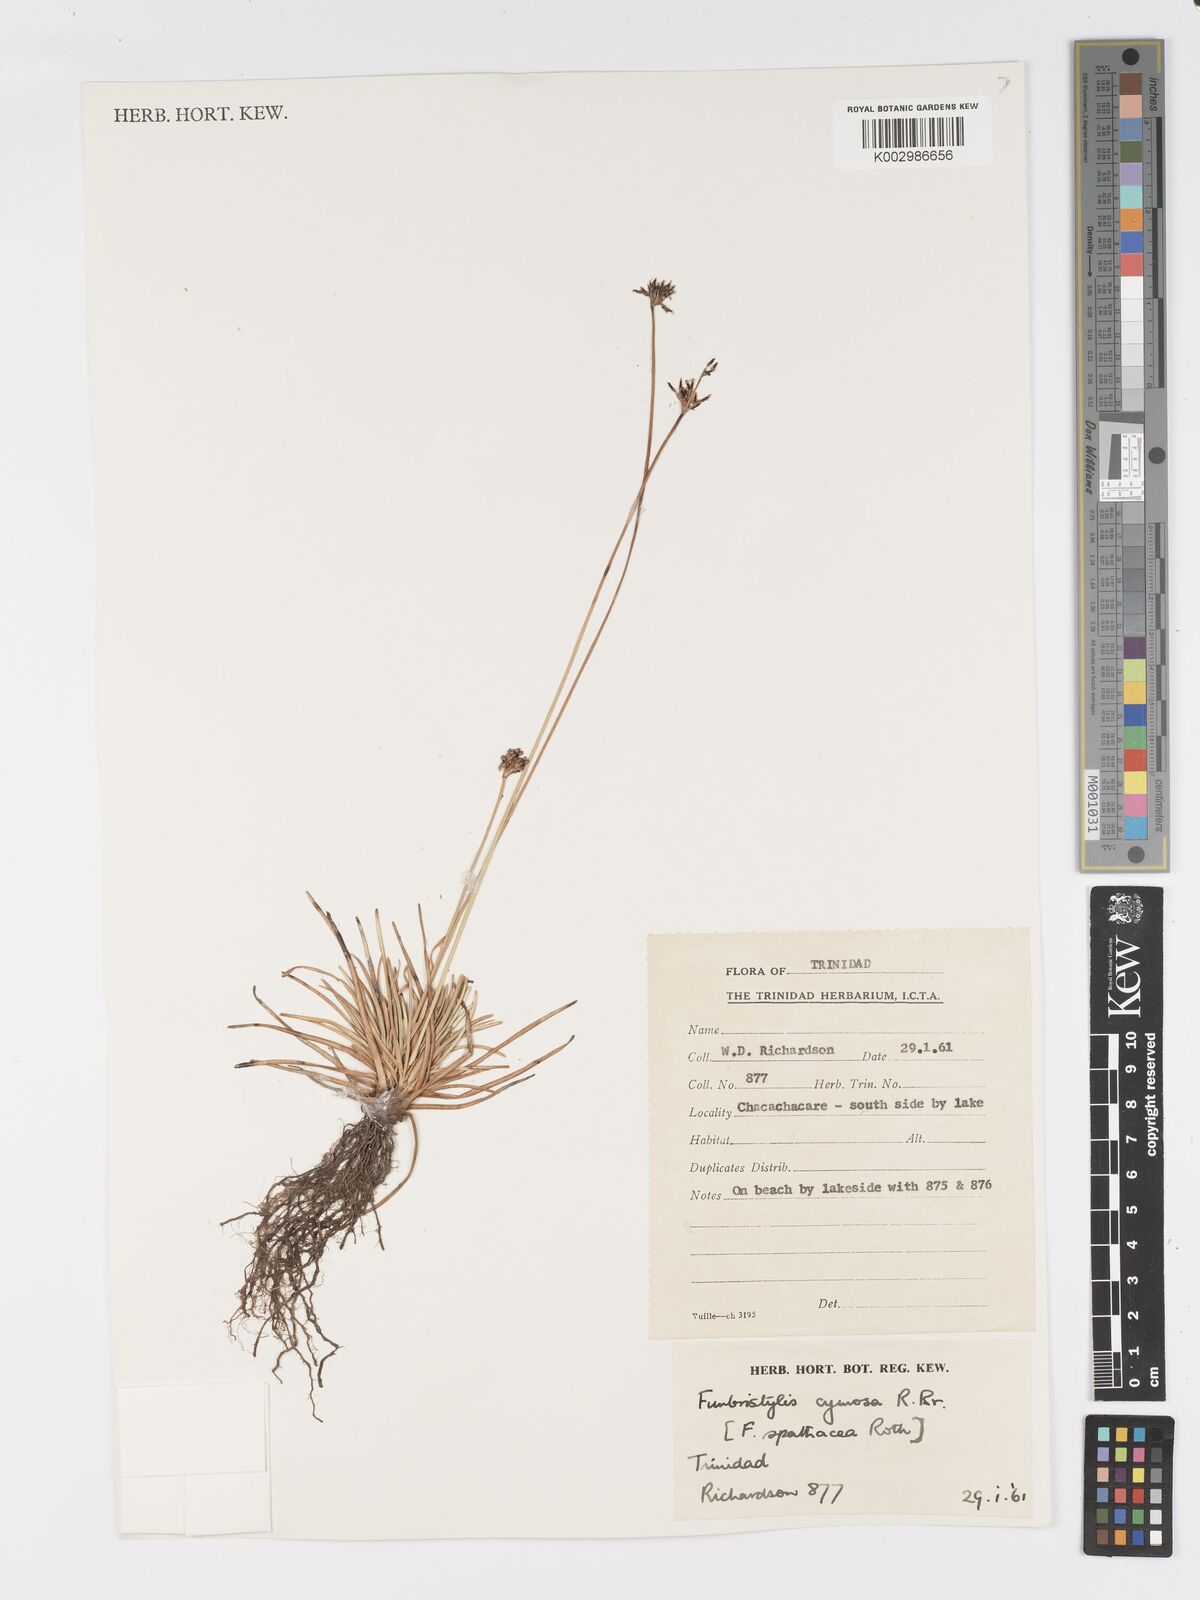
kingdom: Plantae
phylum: Tracheophyta
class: Liliopsida
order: Poales
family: Cyperaceae
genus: Fimbristylis
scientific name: Fimbristylis cymosa
